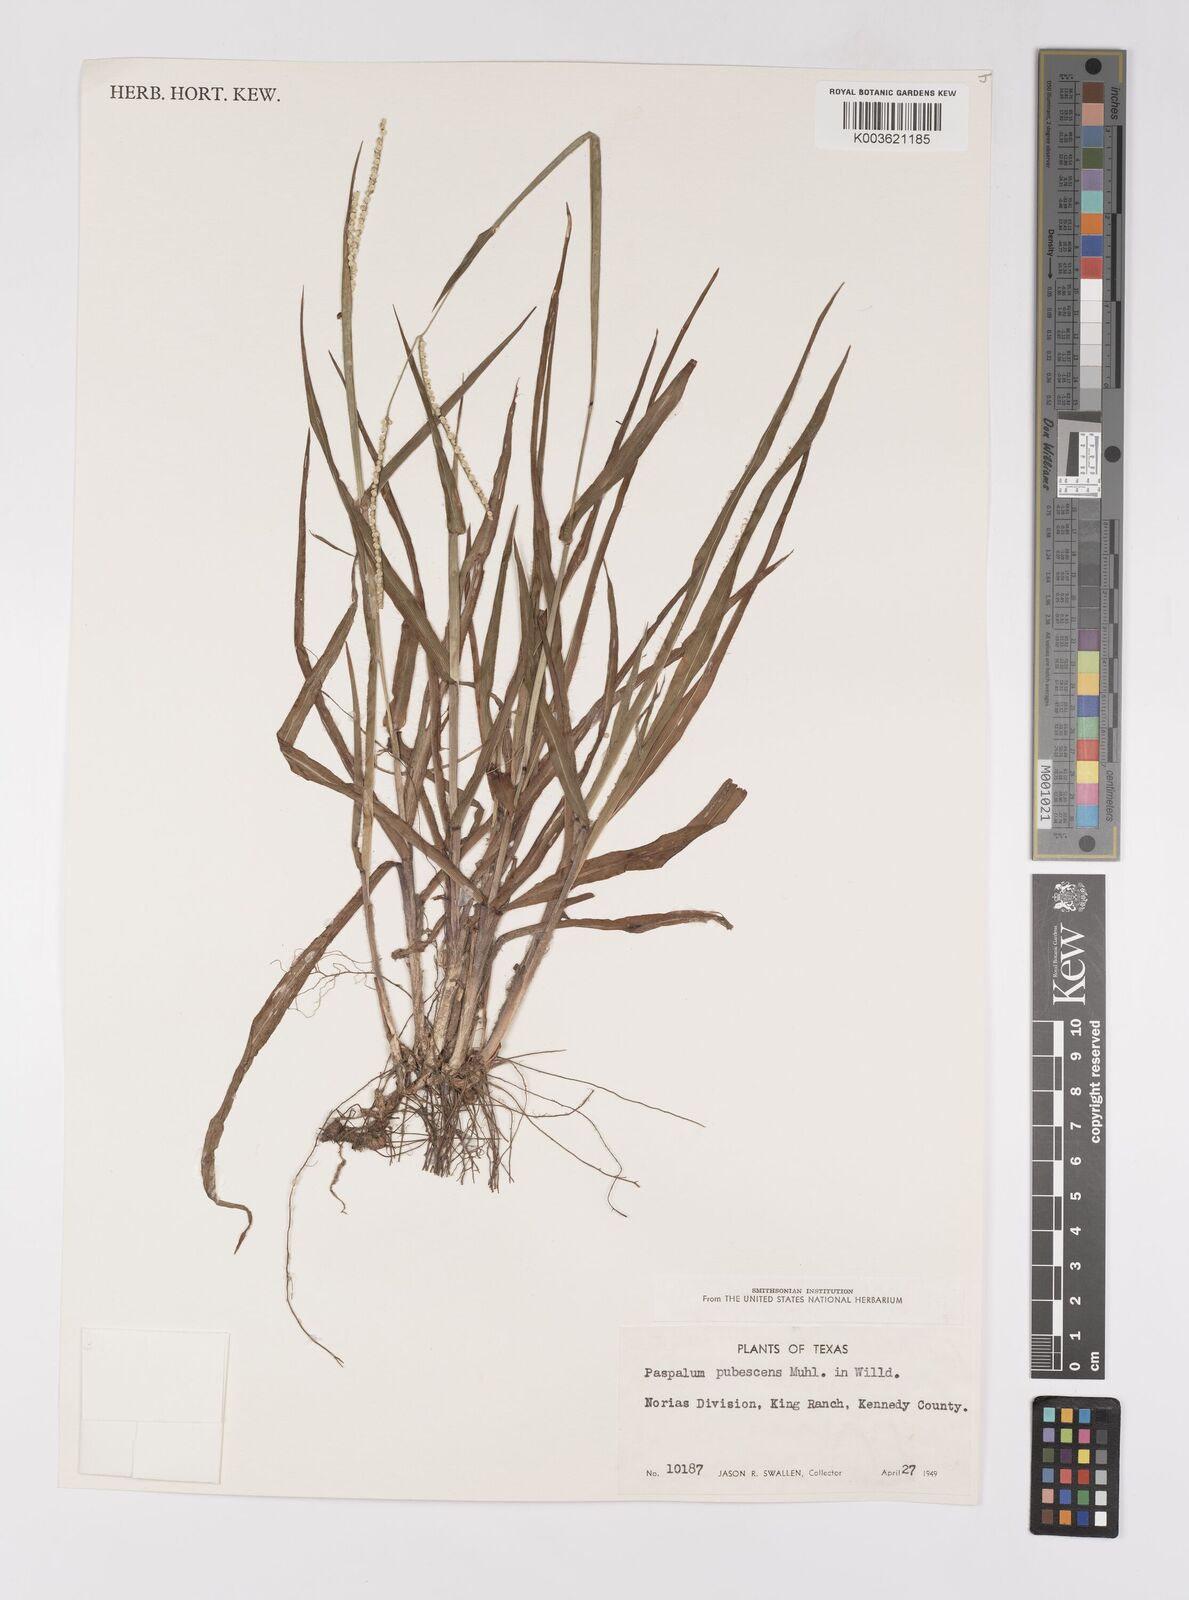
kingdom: Plantae
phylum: Tracheophyta
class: Liliopsida
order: Poales
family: Poaceae
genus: Paspalum
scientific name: Paspalum setaceum
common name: Slender paspalum
